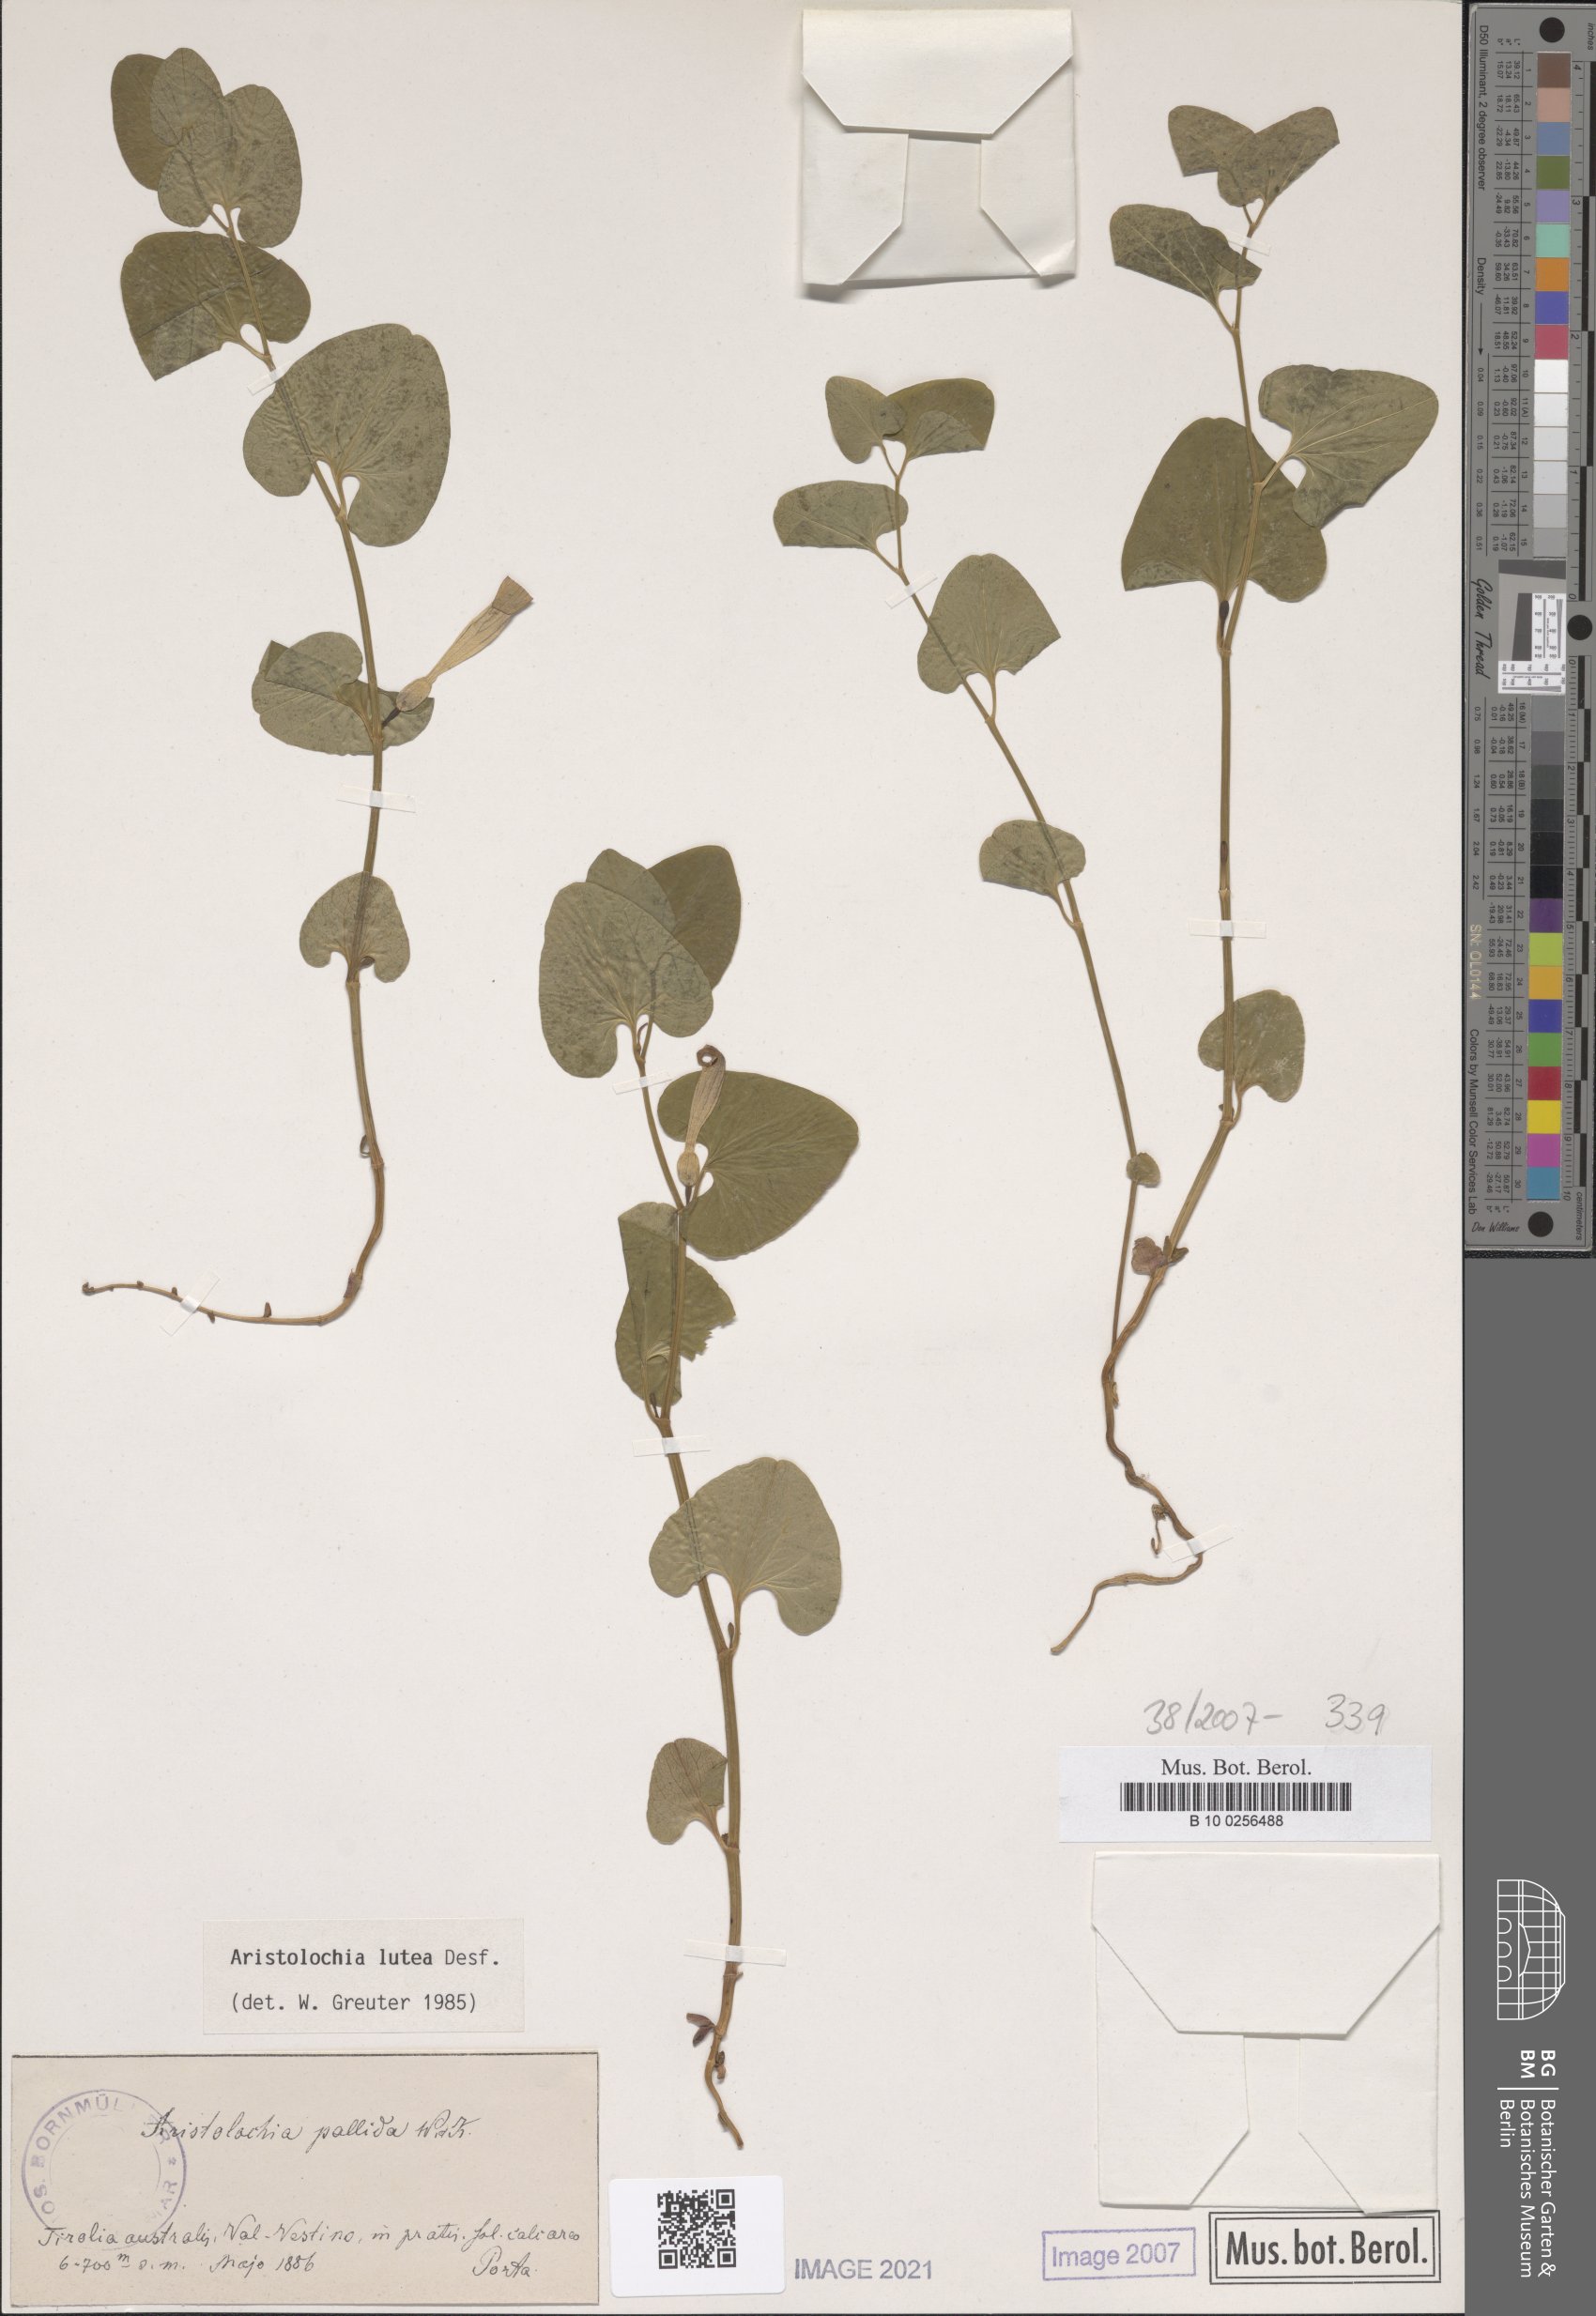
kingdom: Plantae
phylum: Tracheophyta
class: Magnoliopsida
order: Piperales
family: Aristolochiaceae
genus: Aristolochia
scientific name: Aristolochia lutea
